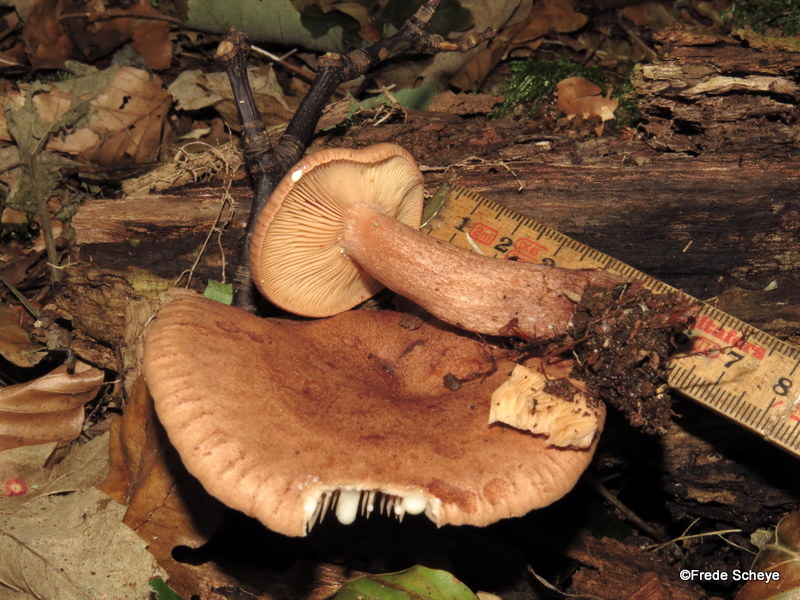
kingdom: Fungi
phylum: Basidiomycota
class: Agaricomycetes
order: Russulales
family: Russulaceae
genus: Lactarius
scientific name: Lactarius quietus
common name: ege-mælkehat
